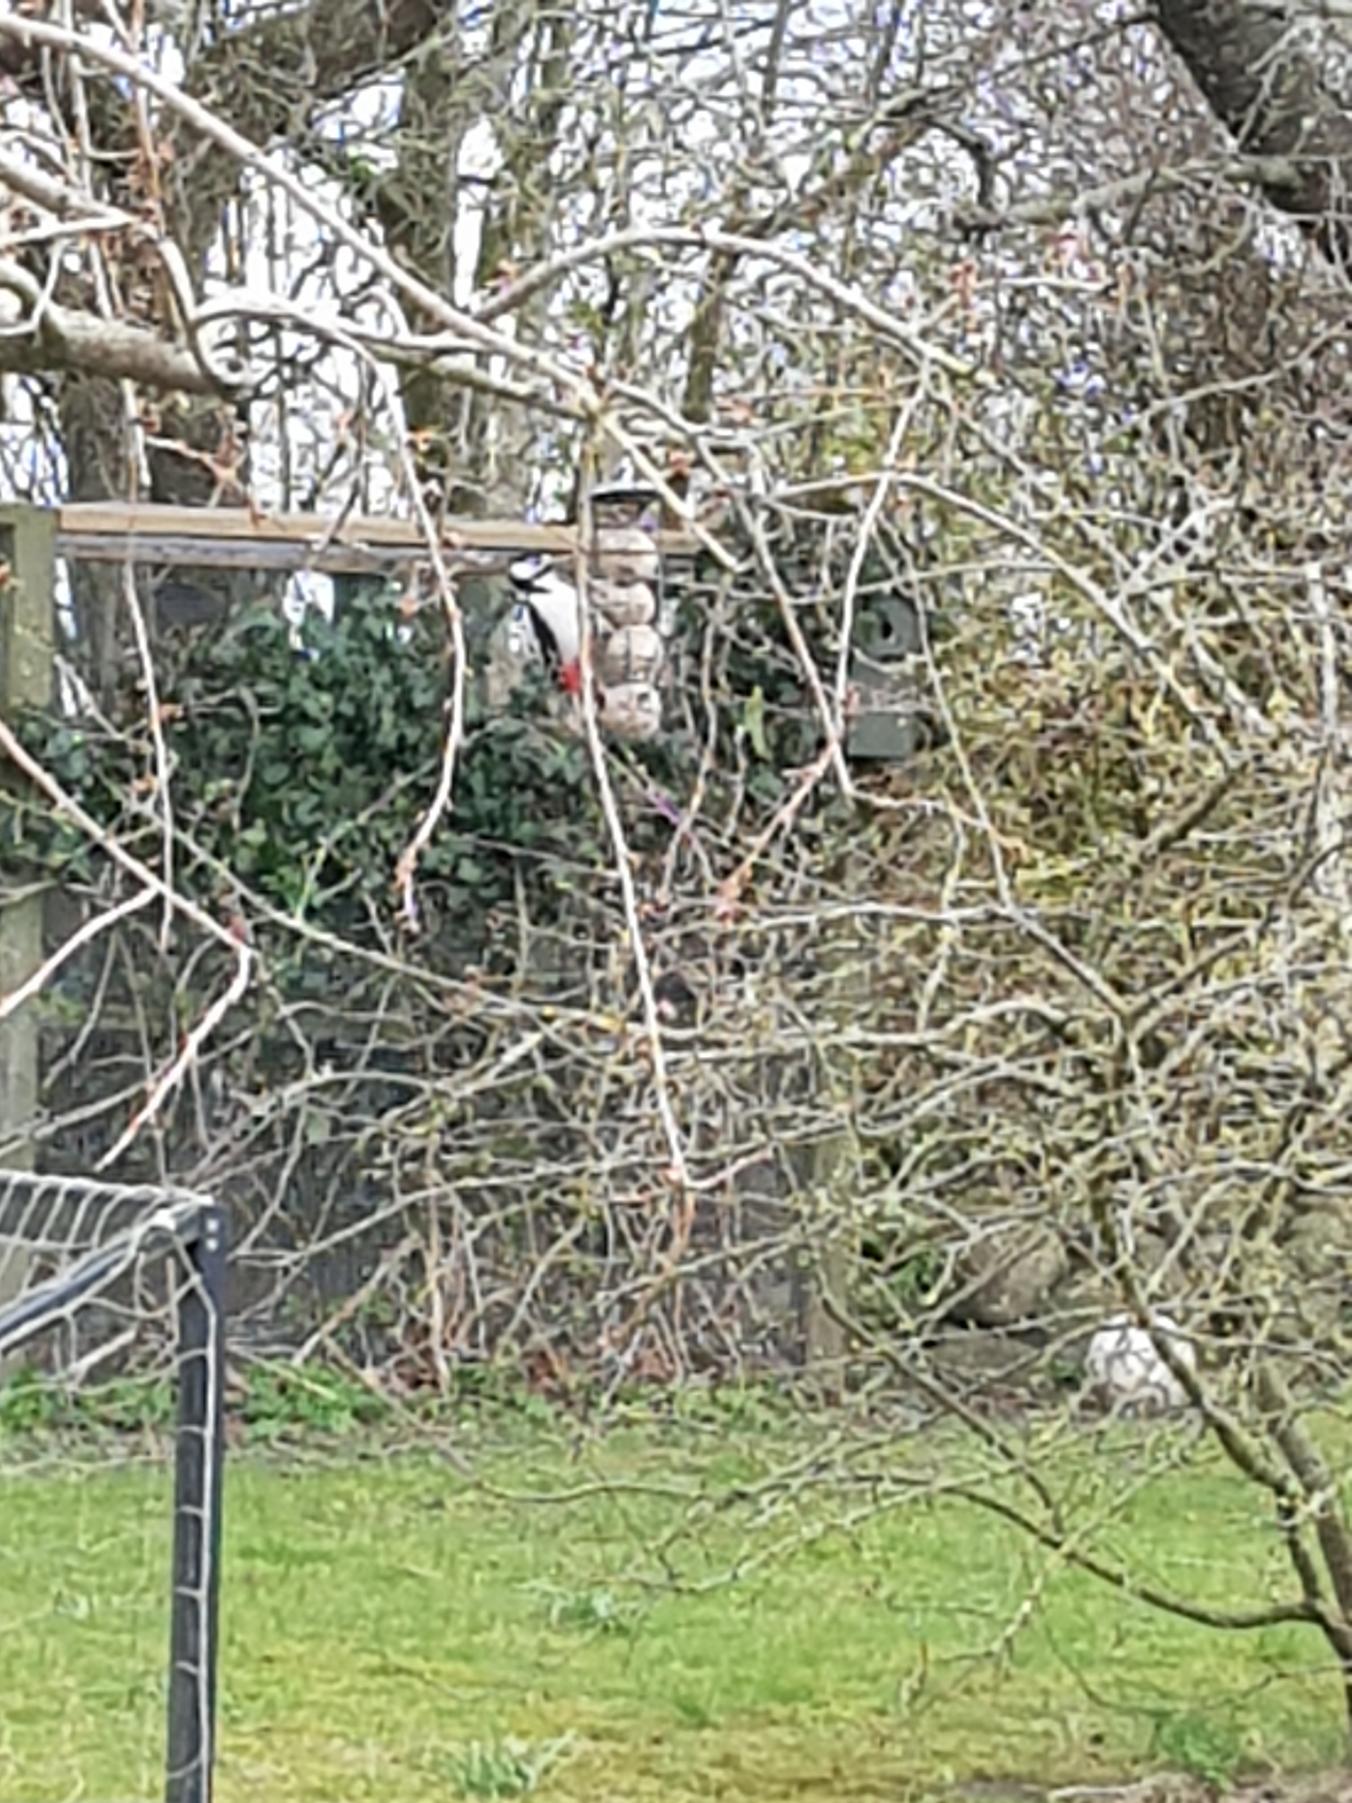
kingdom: Animalia
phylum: Chordata
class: Aves
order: Piciformes
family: Picidae
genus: Dendrocopos
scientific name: Dendrocopos major
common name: Stor flagspætte
